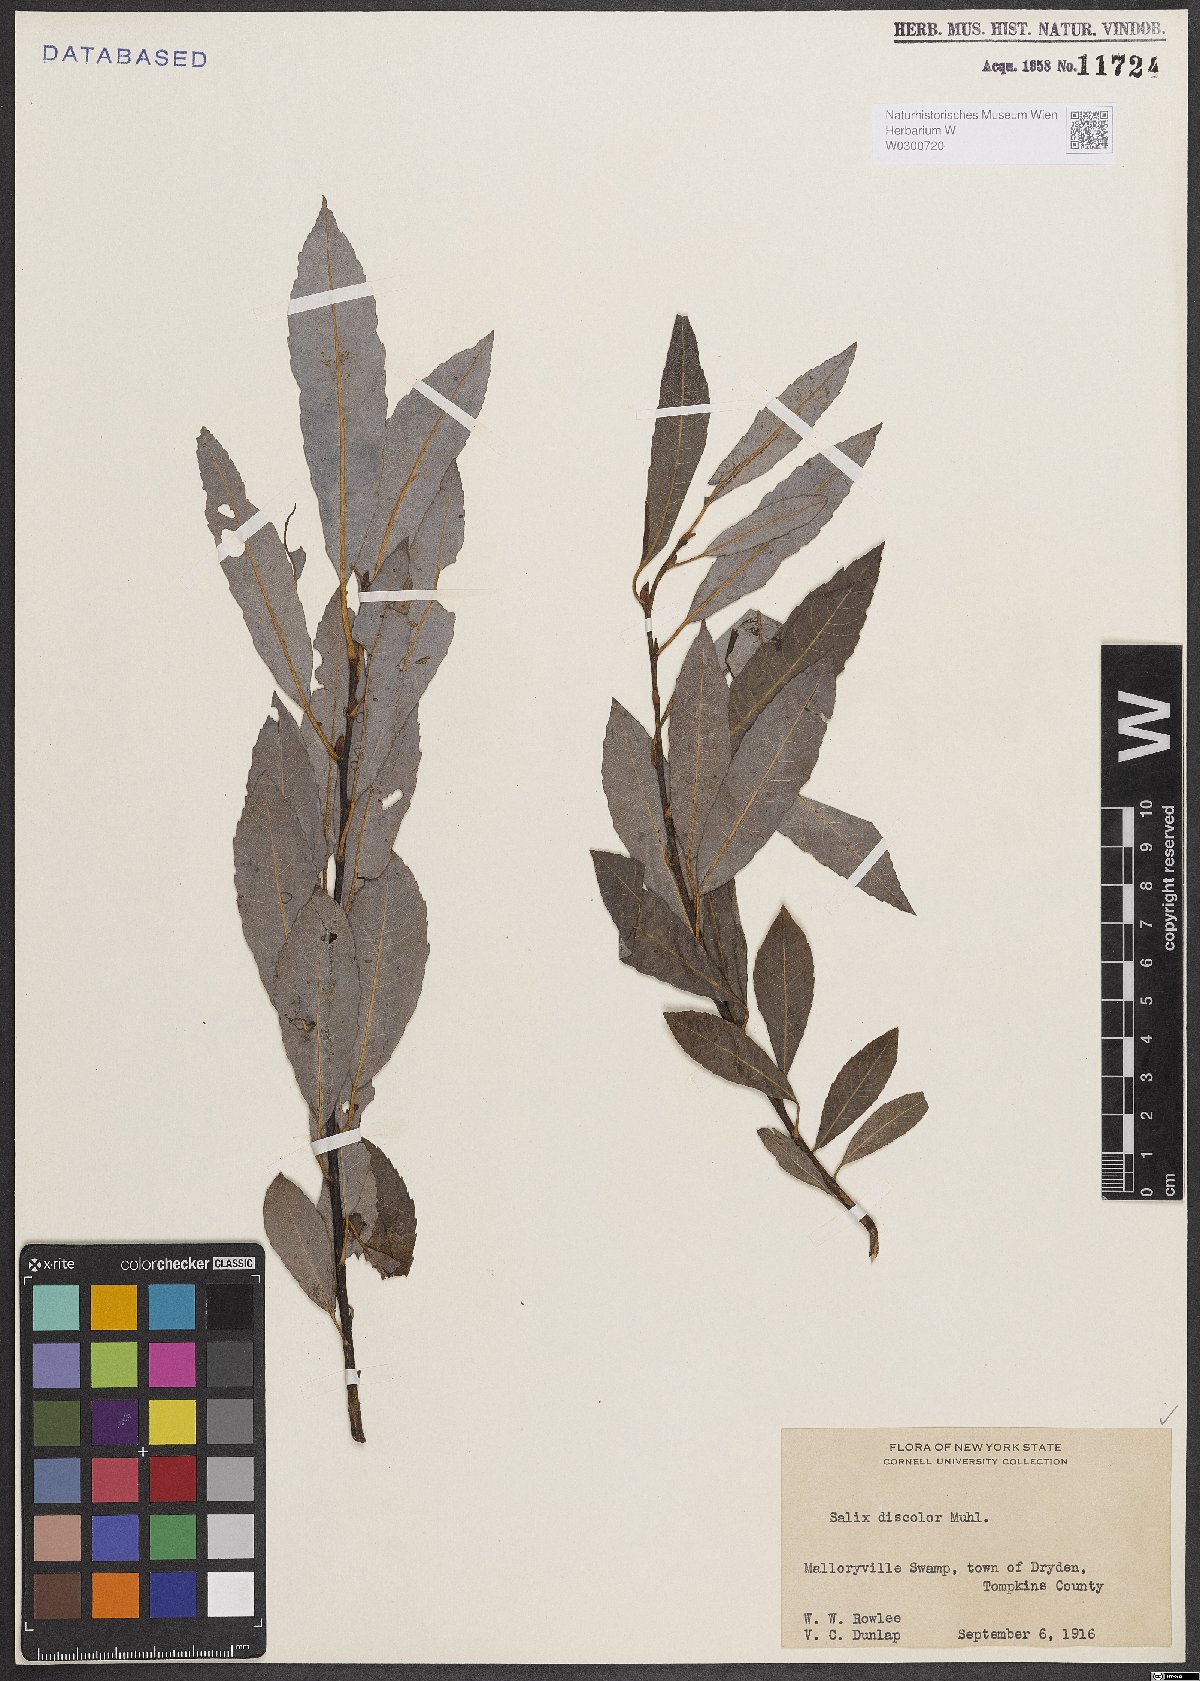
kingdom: Plantae
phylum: Tracheophyta
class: Magnoliopsida
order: Malpighiales
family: Salicaceae
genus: Salix
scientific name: Salix discolor
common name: Glaucous willow
